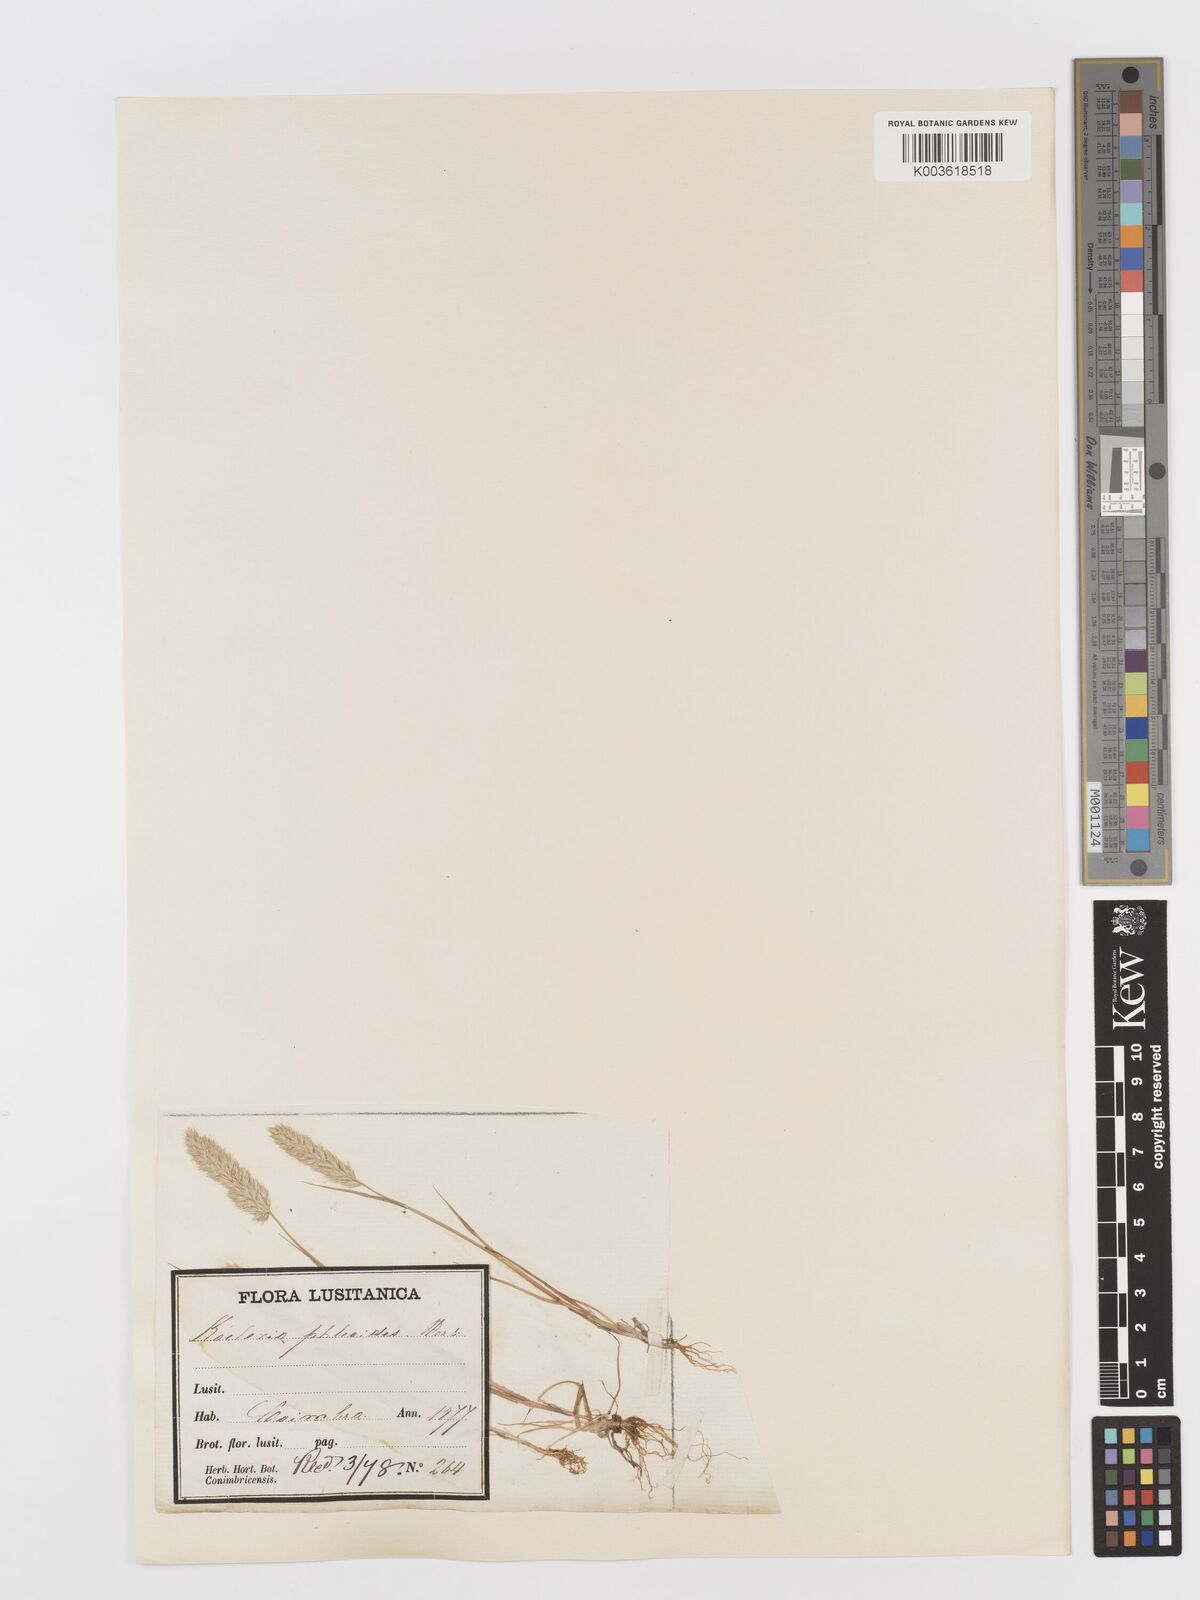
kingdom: Plantae
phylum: Tracheophyta
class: Liliopsida
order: Poales
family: Poaceae
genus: Rostraria
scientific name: Rostraria cristata
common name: Mediterranean hair-grass
